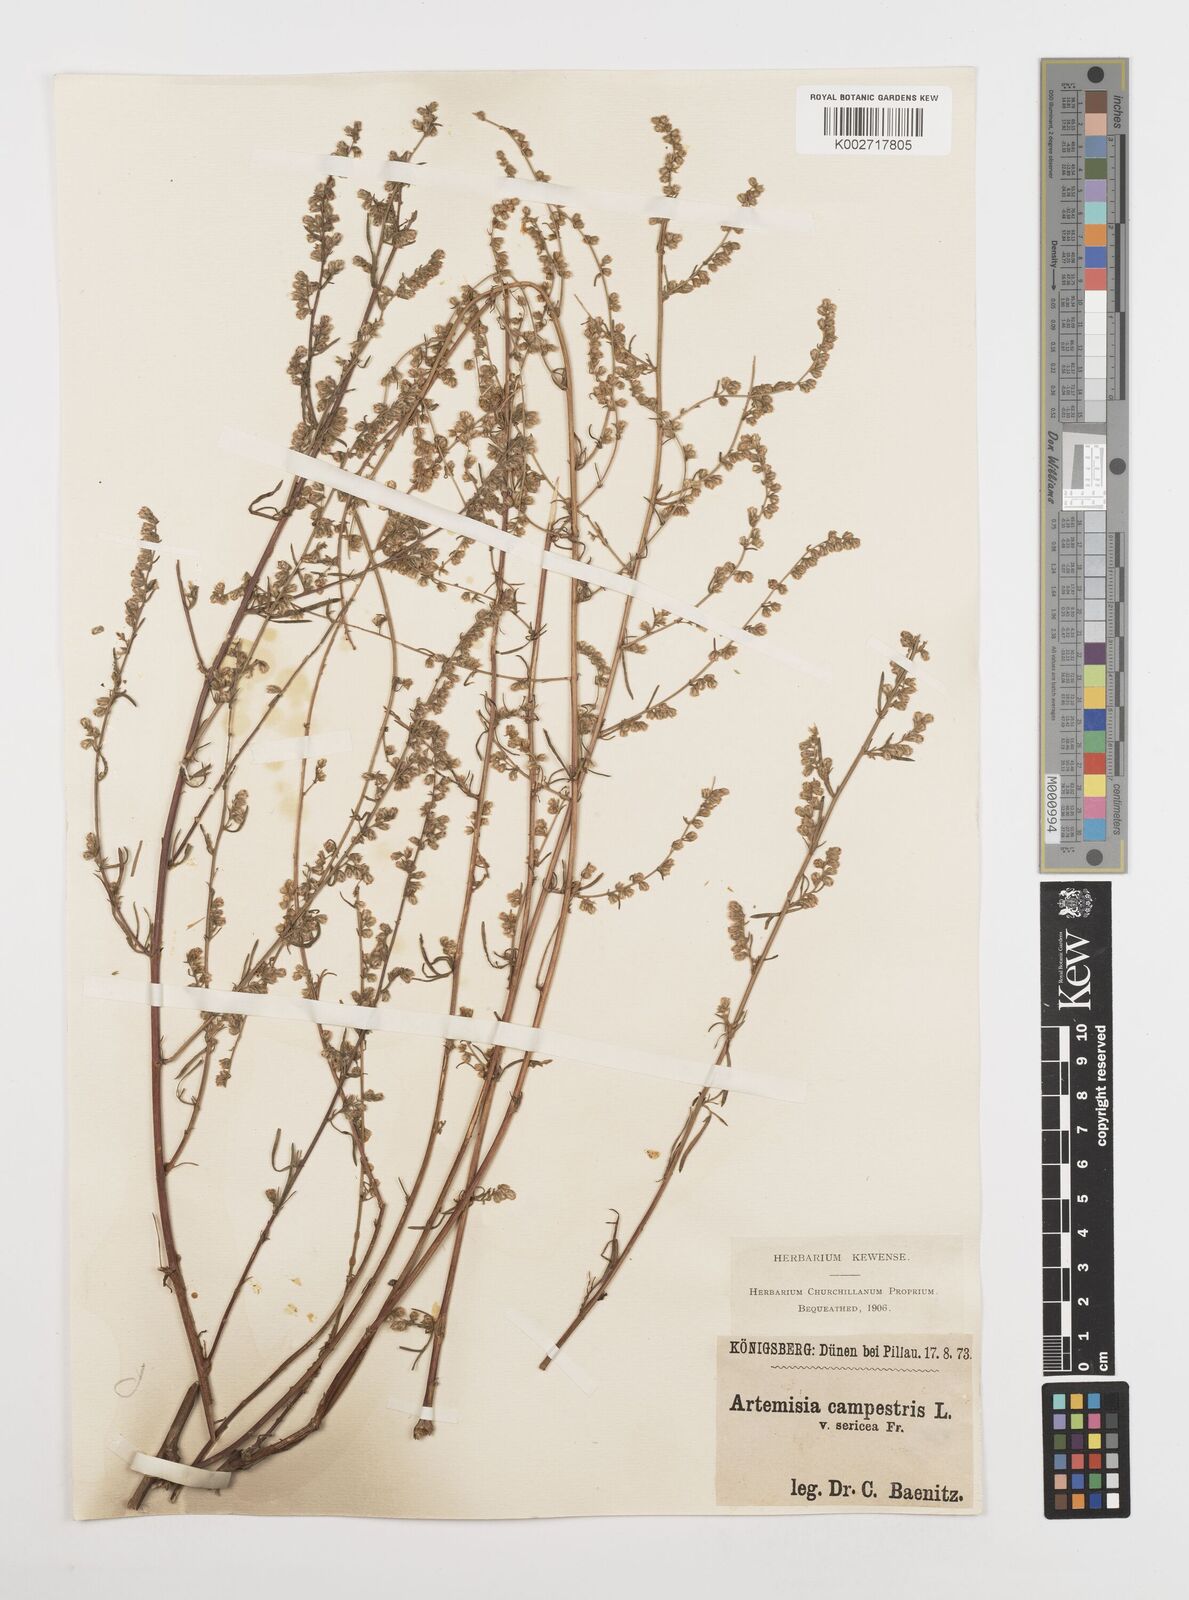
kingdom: Plantae
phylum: Tracheophyta
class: Magnoliopsida
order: Asterales
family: Asteraceae
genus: Artemisia
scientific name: Artemisia campestris
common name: Field wormwood
